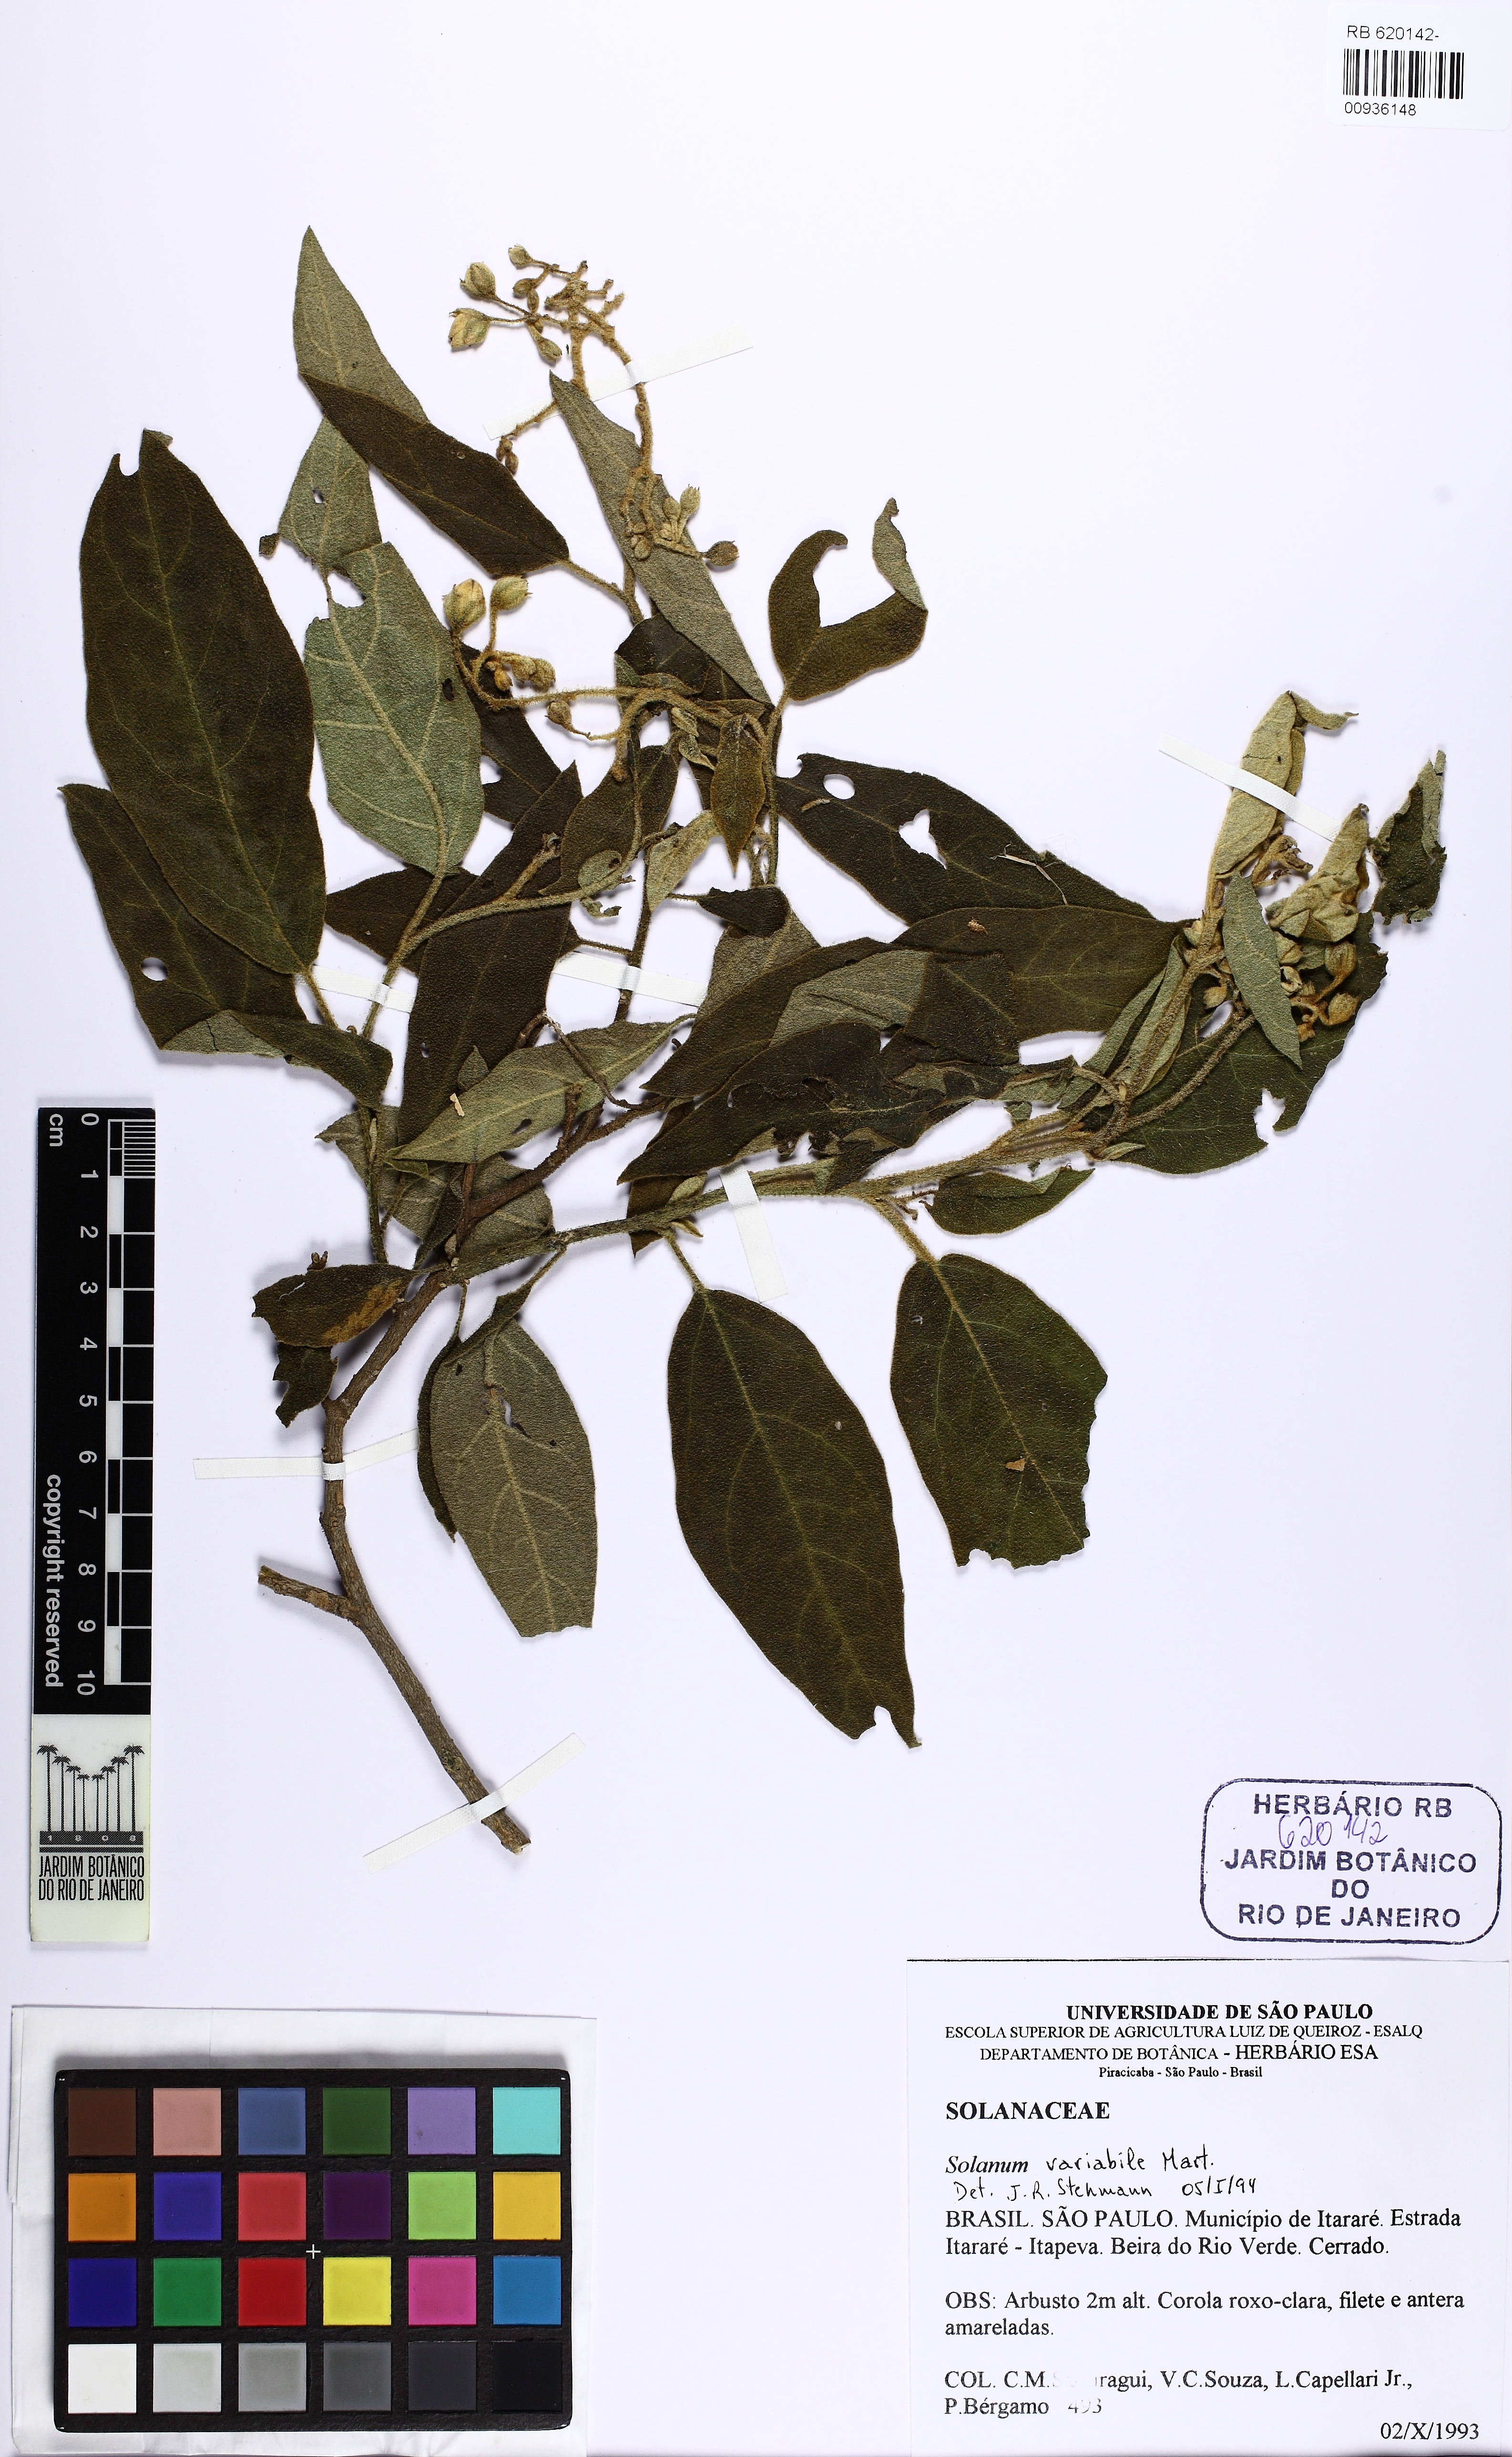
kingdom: Plantae
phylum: Tracheophyta
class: Magnoliopsida
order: Solanales
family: Solanaceae
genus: Solanum
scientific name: Solanum variabile
